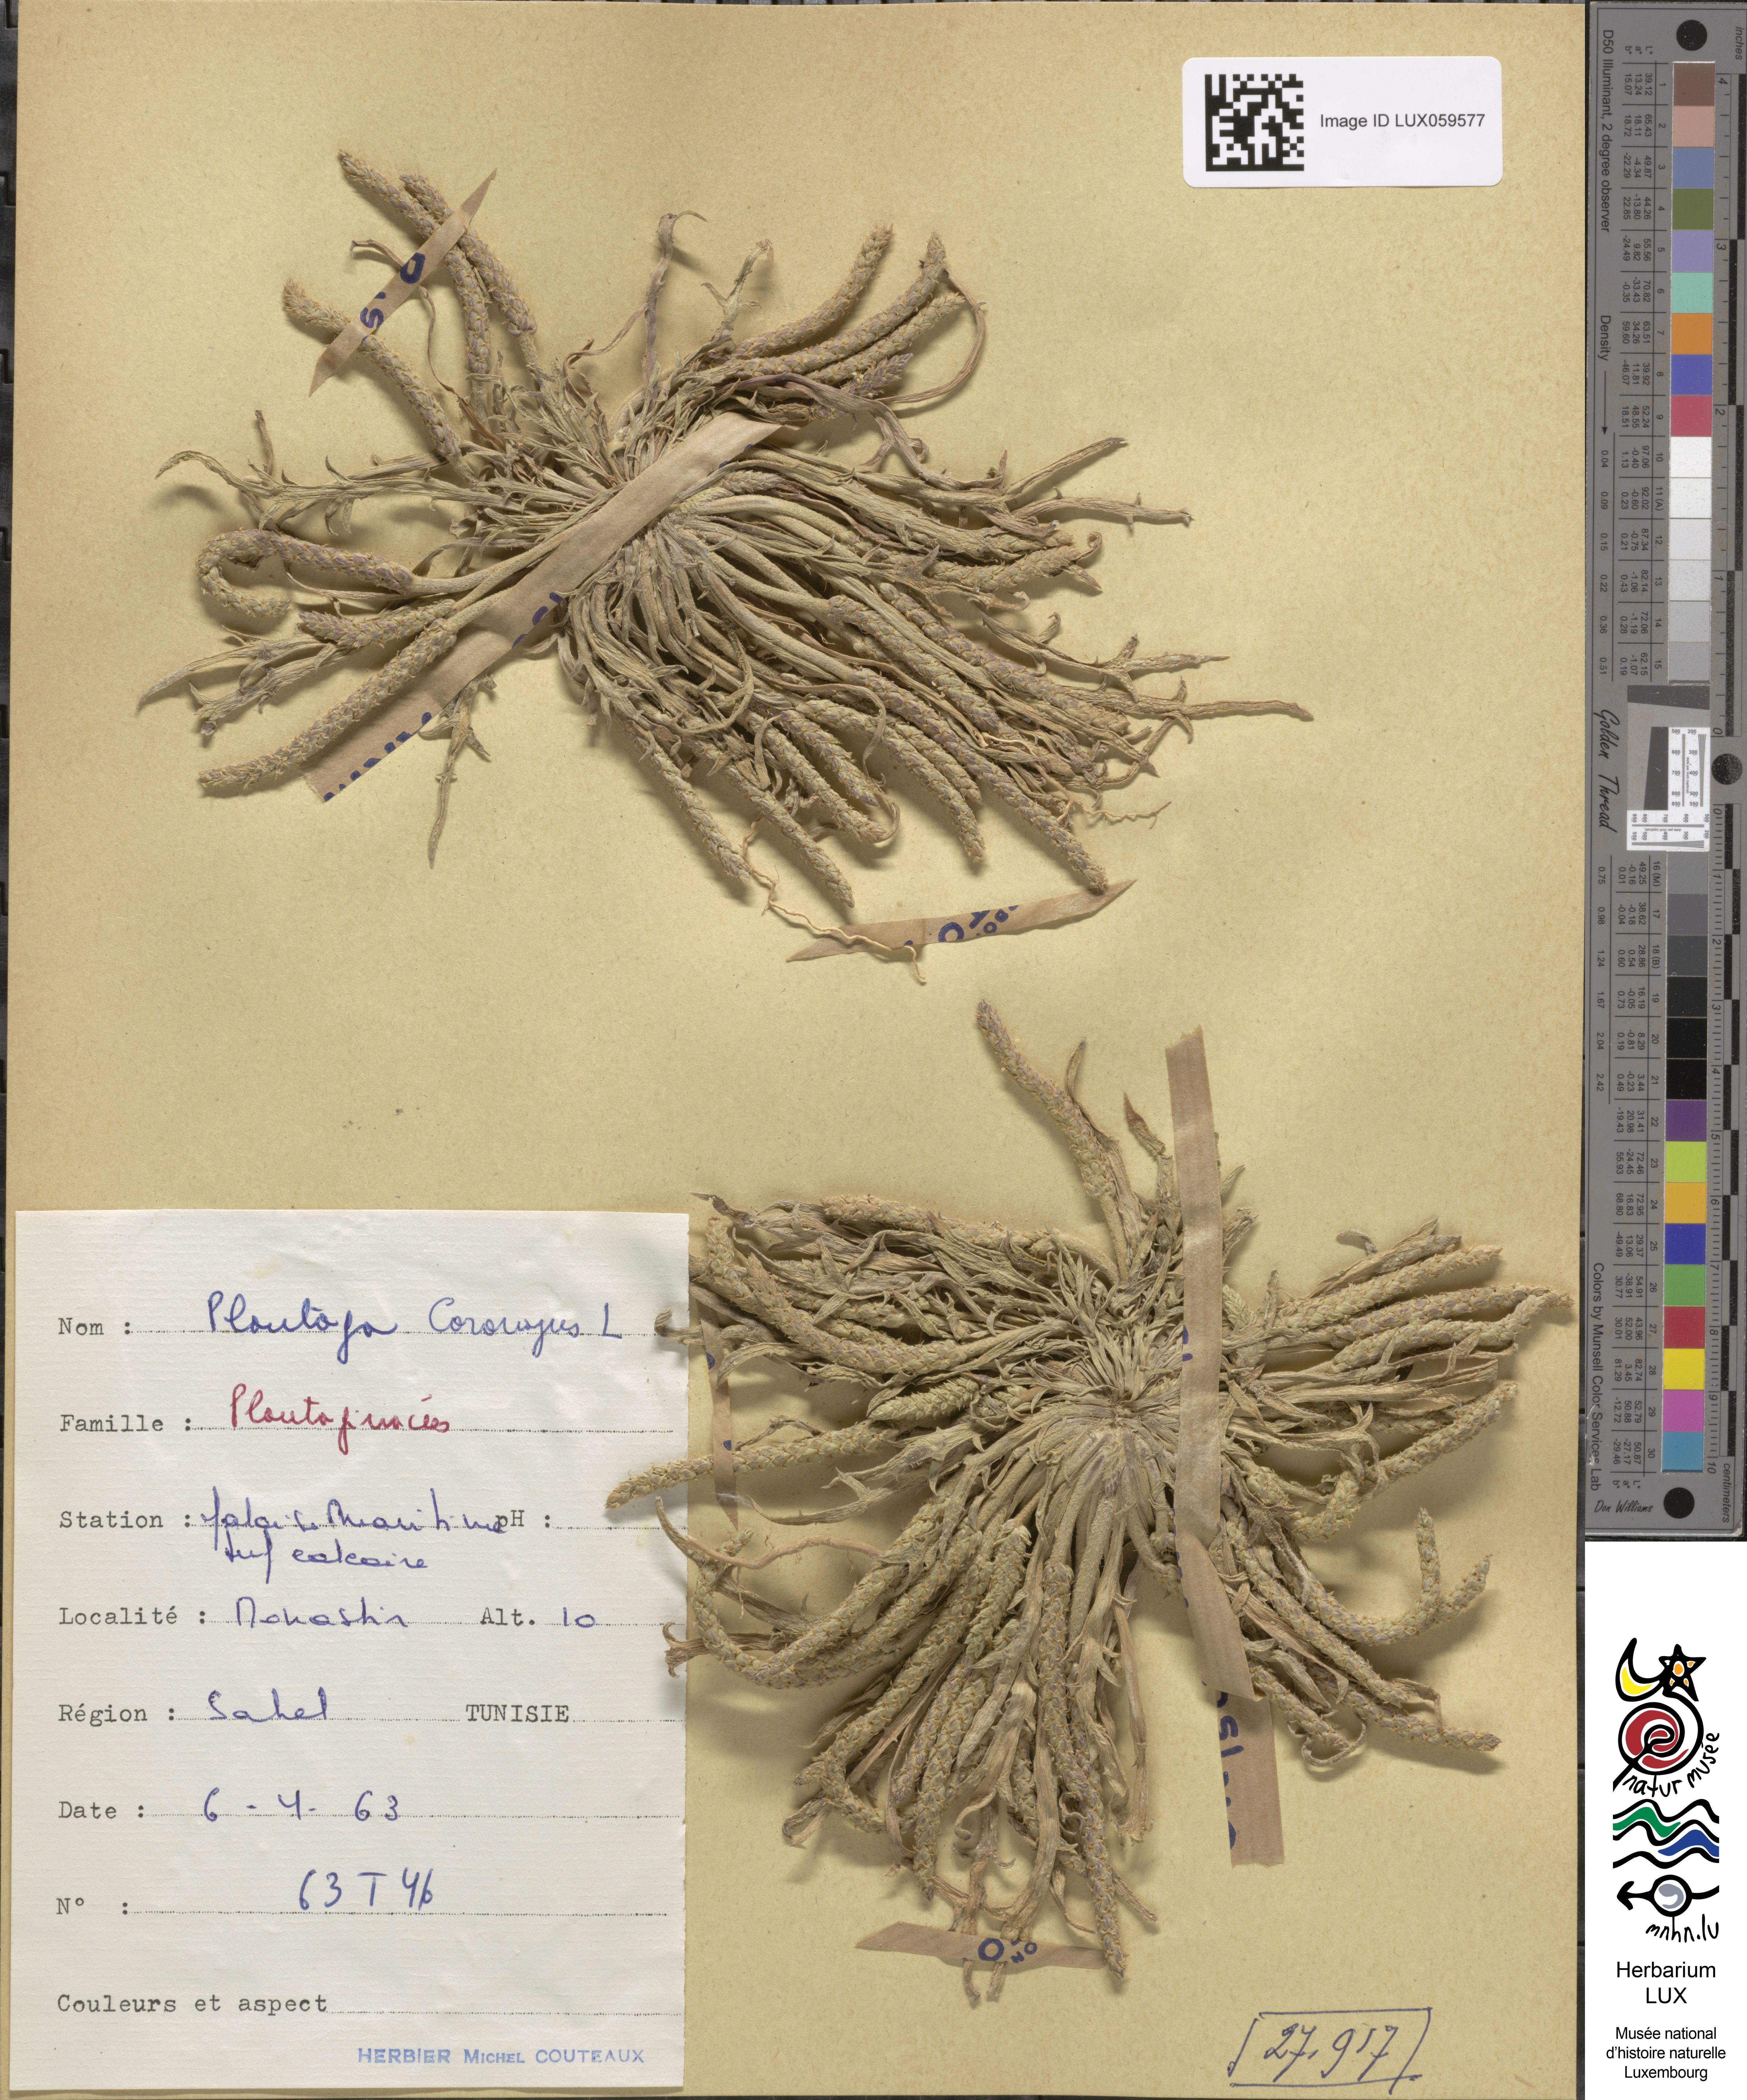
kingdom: Plantae
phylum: Tracheophyta
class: Magnoliopsida
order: Lamiales
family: Plantaginaceae
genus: Plantago
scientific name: Plantago coronopus
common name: Buck's-horn plantain
